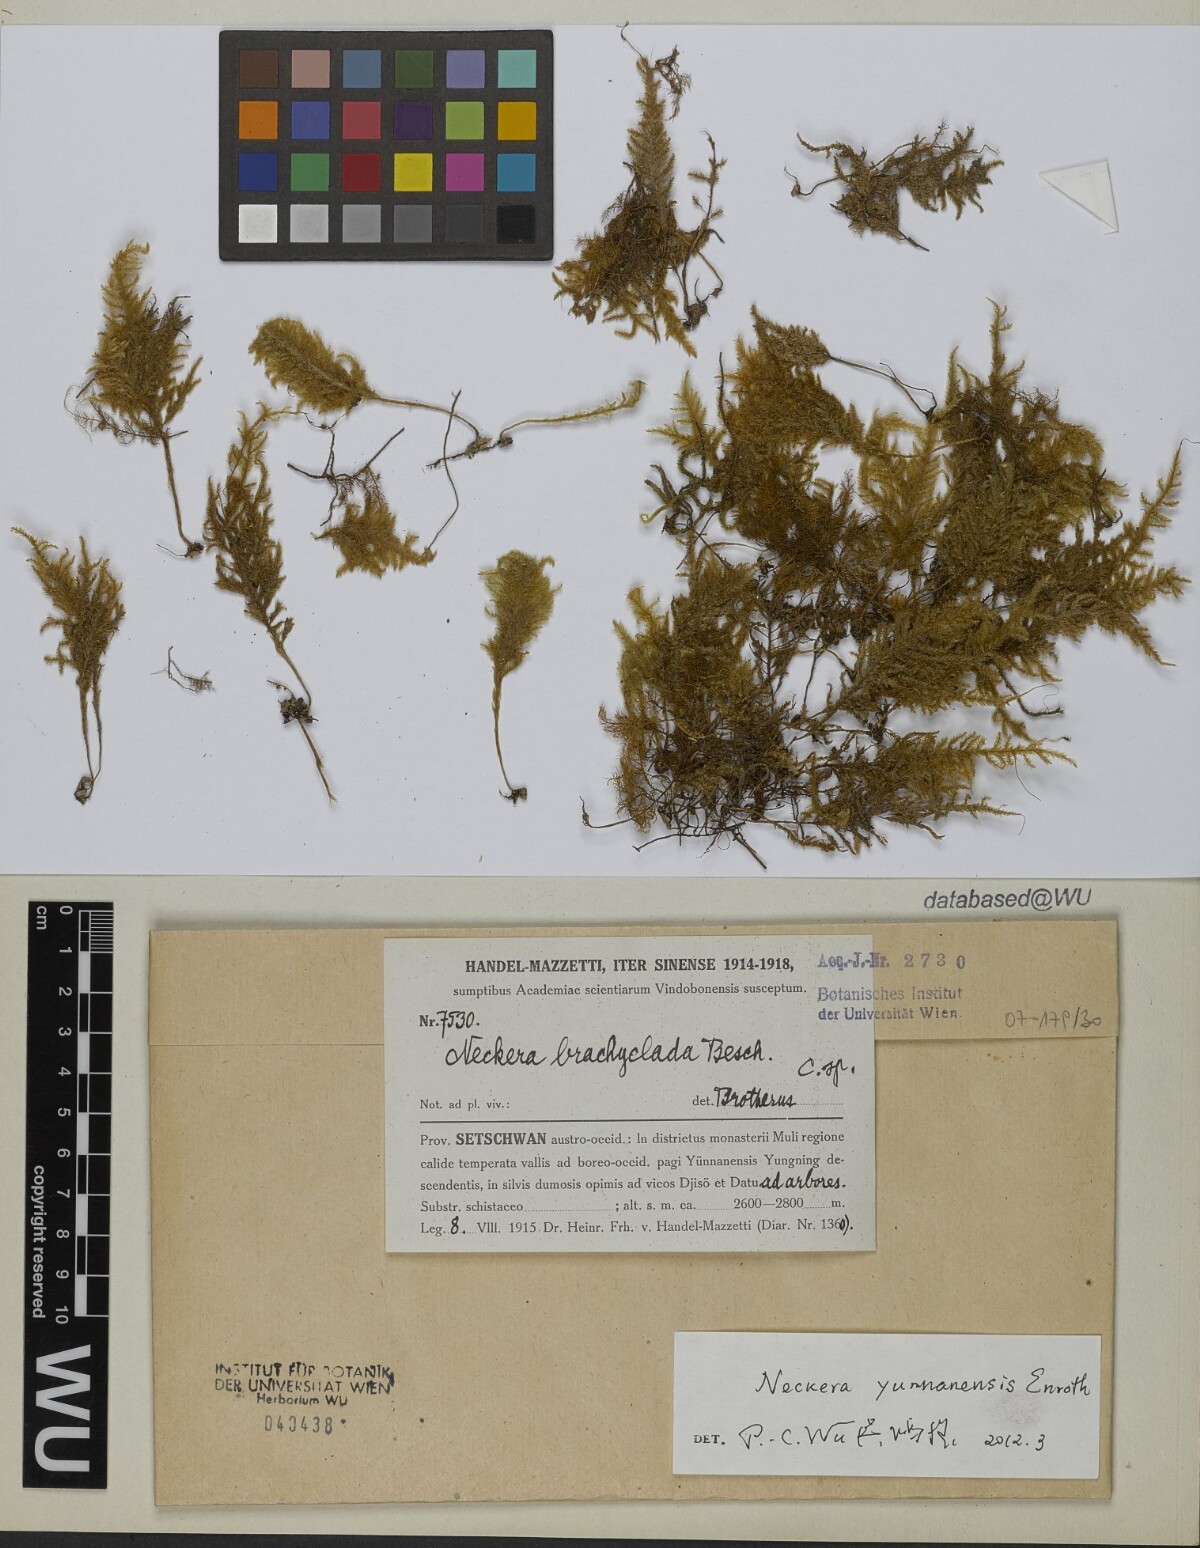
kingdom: Plantae
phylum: Bryophyta
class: Bryopsida
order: Hypnales
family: Neckeraceae
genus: Taiwanobryum
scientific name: Taiwanobryum yunnanense
